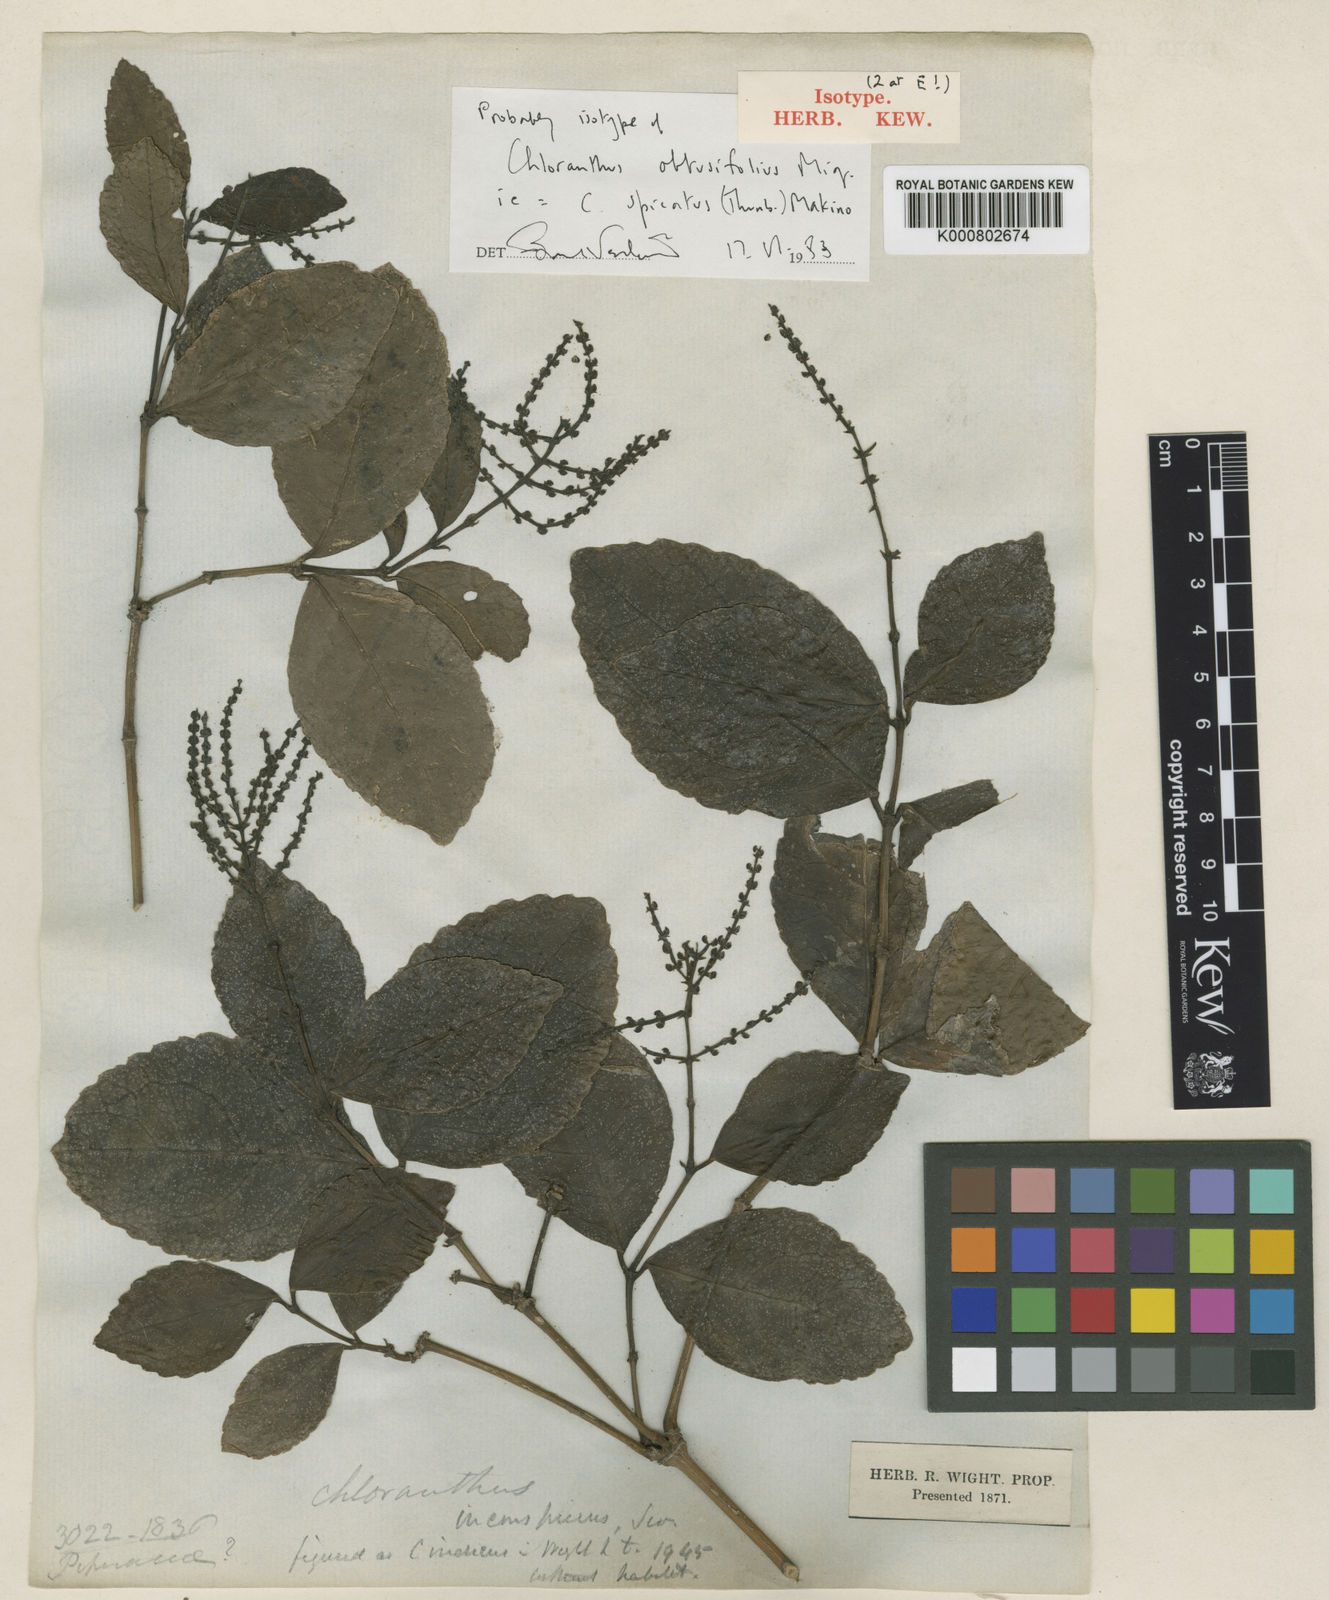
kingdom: Plantae
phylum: Tracheophyta
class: Magnoliopsida
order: Chloranthales
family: Chloranthaceae
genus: Chloranthus
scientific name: Chloranthus spicatus
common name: Chulantree
